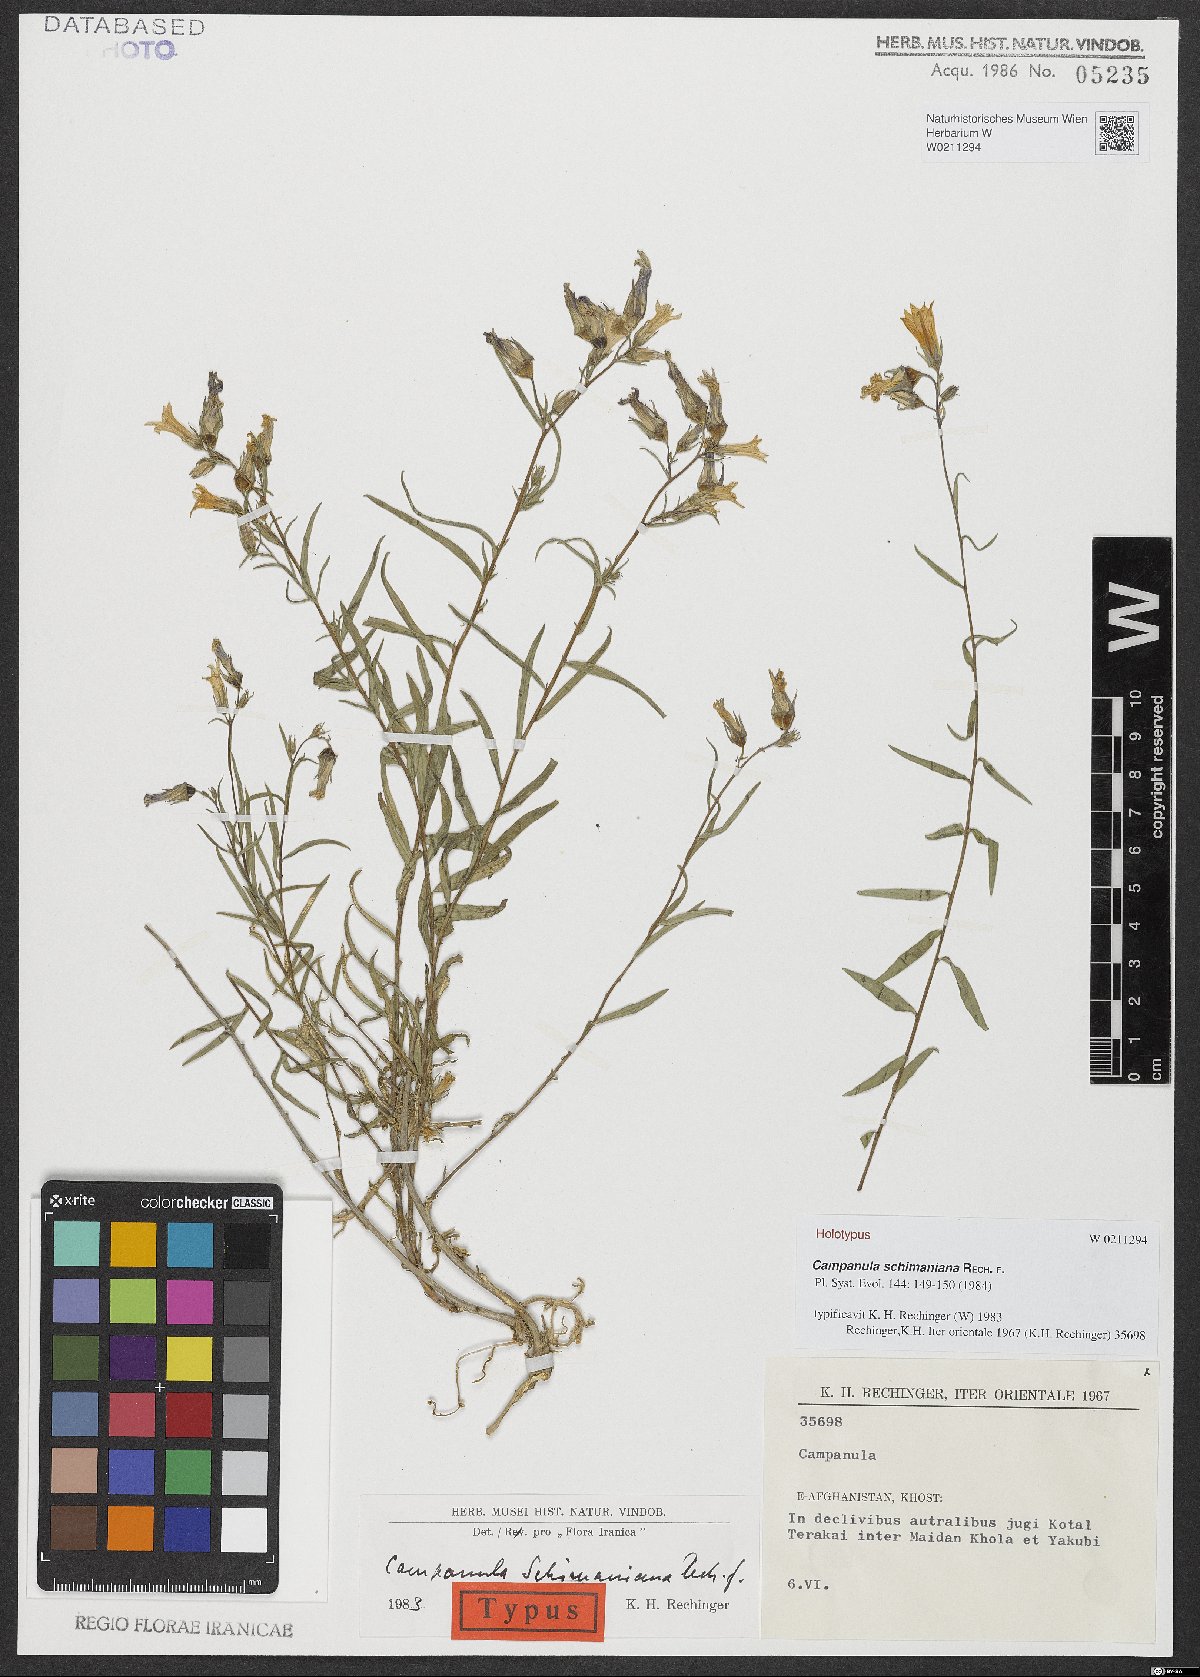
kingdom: Plantae
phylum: Tracheophyta
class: Magnoliopsida
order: Asterales
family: Campanulaceae
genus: Campanula
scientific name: Campanula schimaniana
